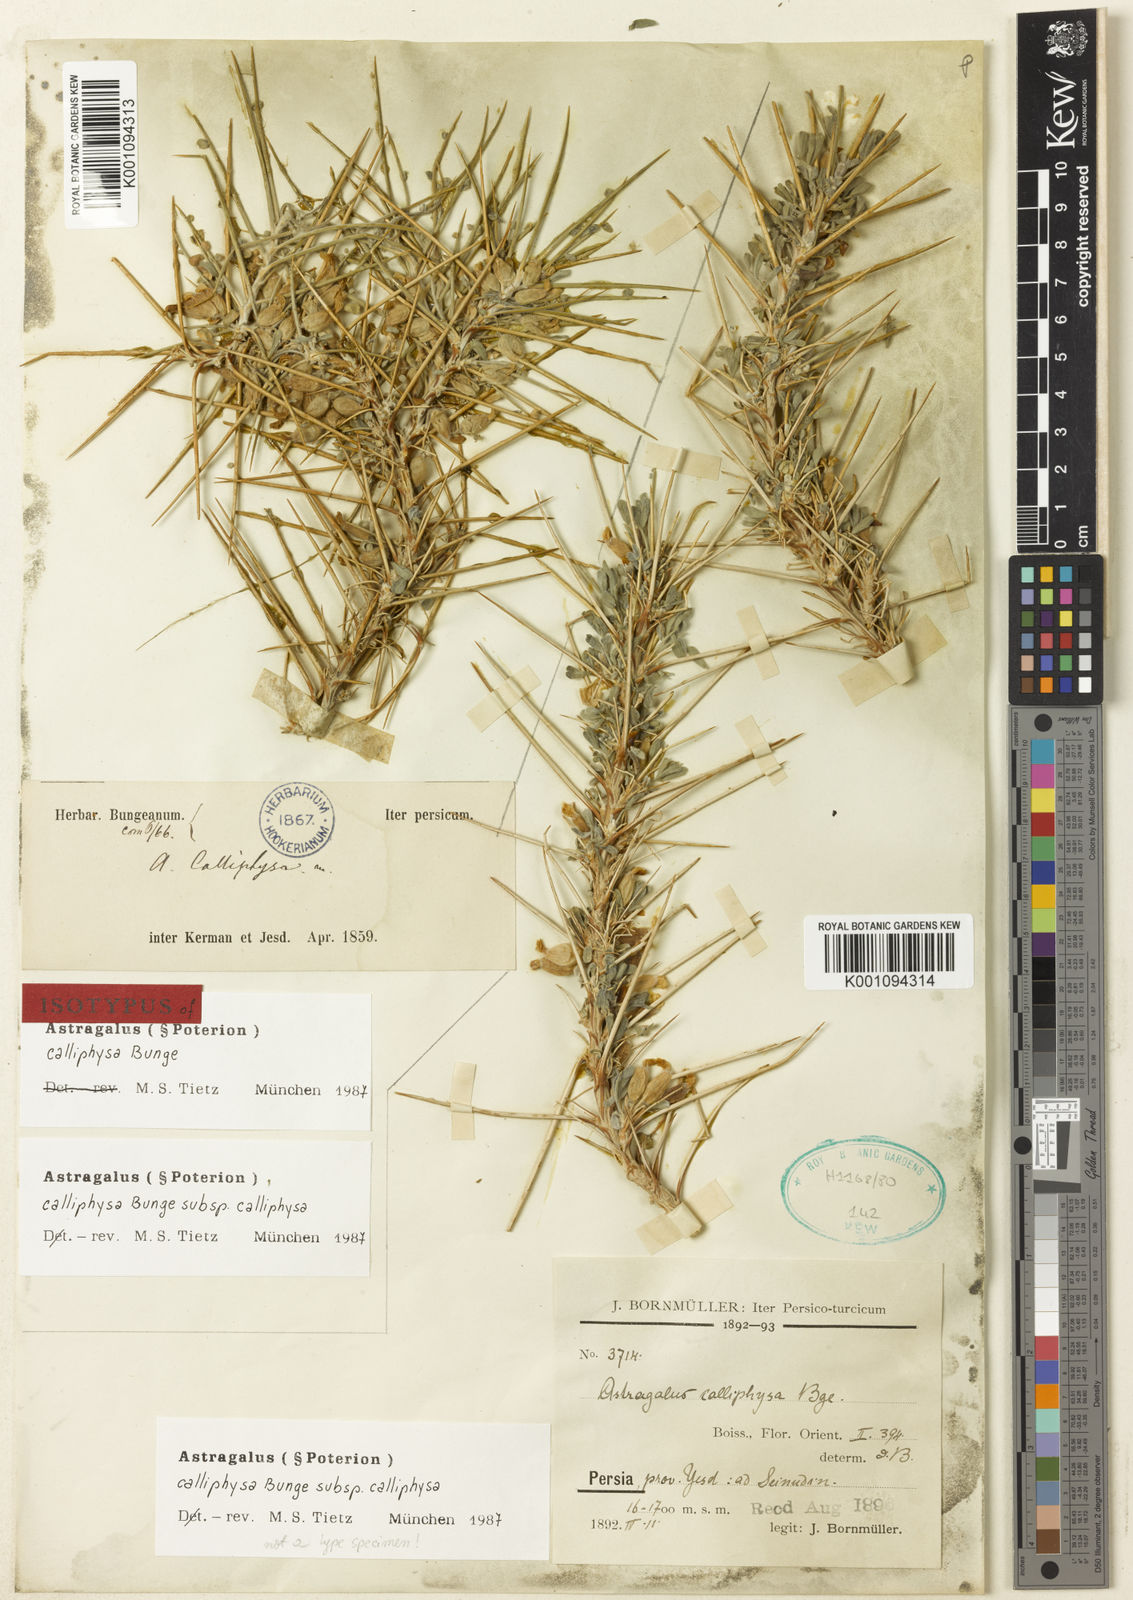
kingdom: Plantae
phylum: Tracheophyta
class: Magnoliopsida
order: Fabales
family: Fabaceae
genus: Astragalus
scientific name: Astragalus
